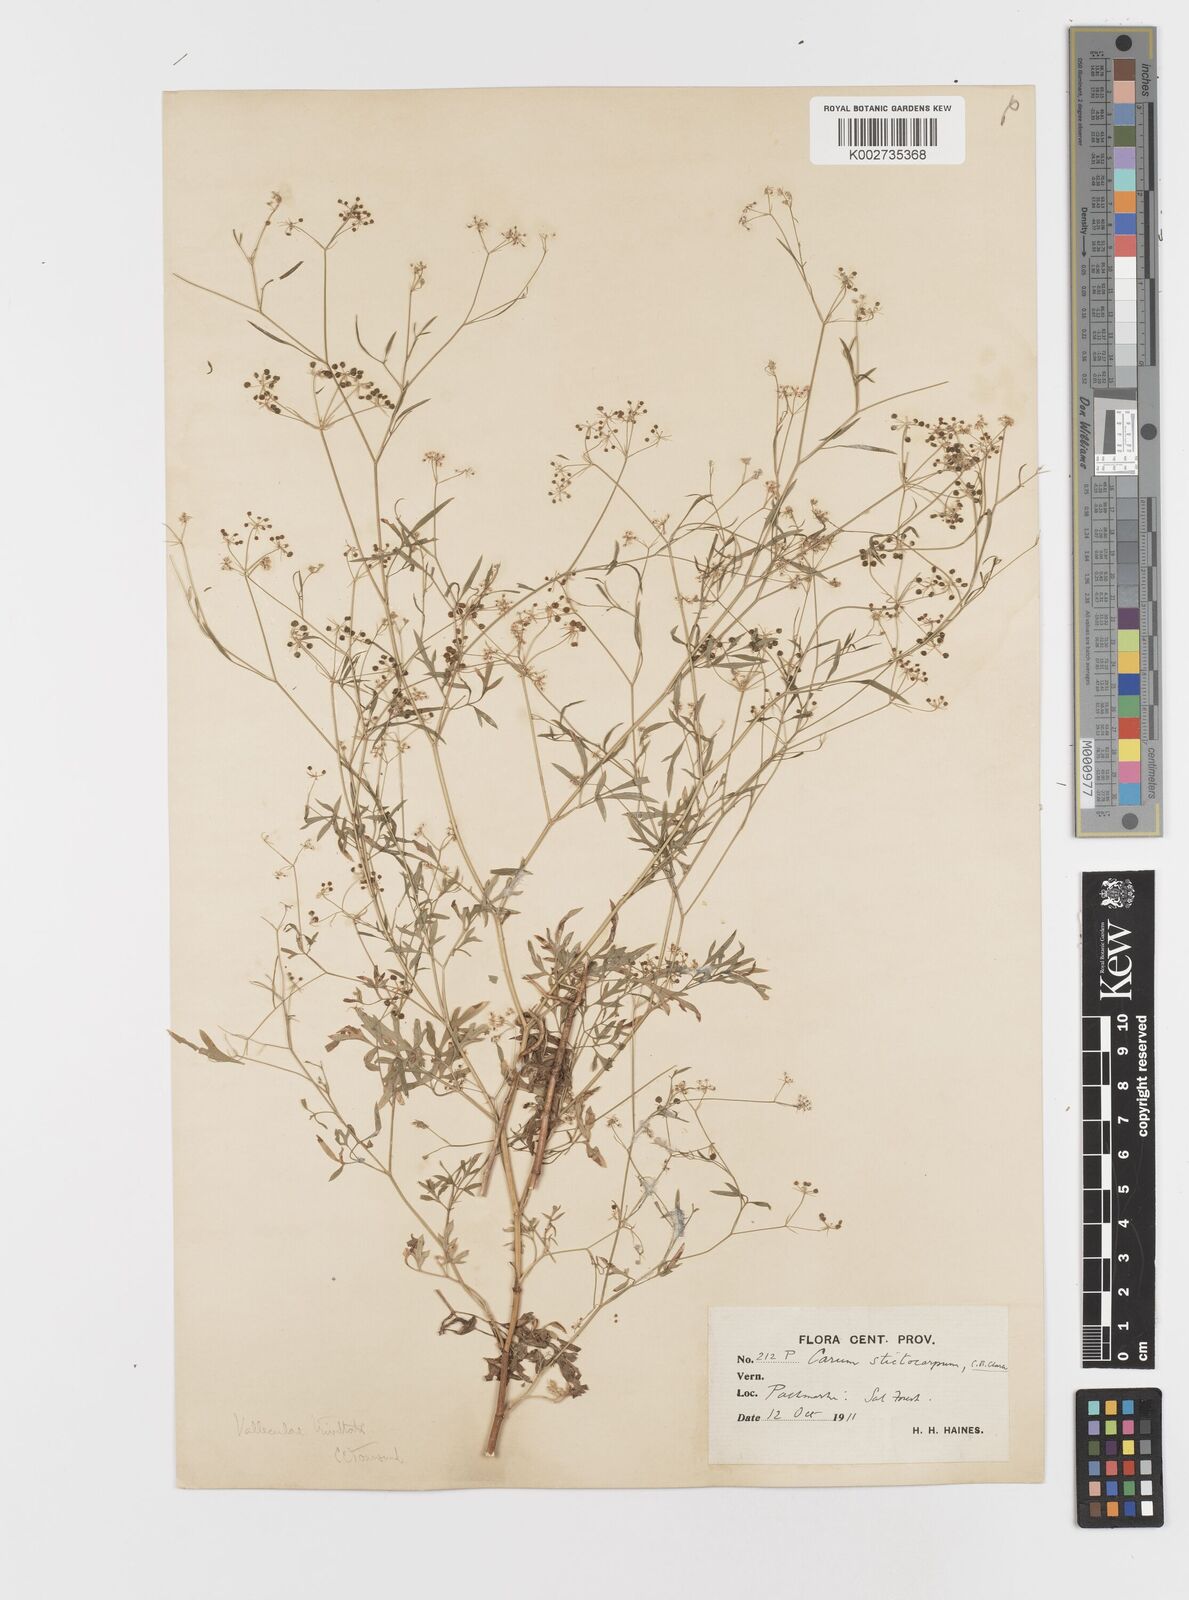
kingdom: Plantae
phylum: Tracheophyta
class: Magnoliopsida
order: Apiales
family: Apiaceae
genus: Psammogeton
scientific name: Psammogeton involucratum
